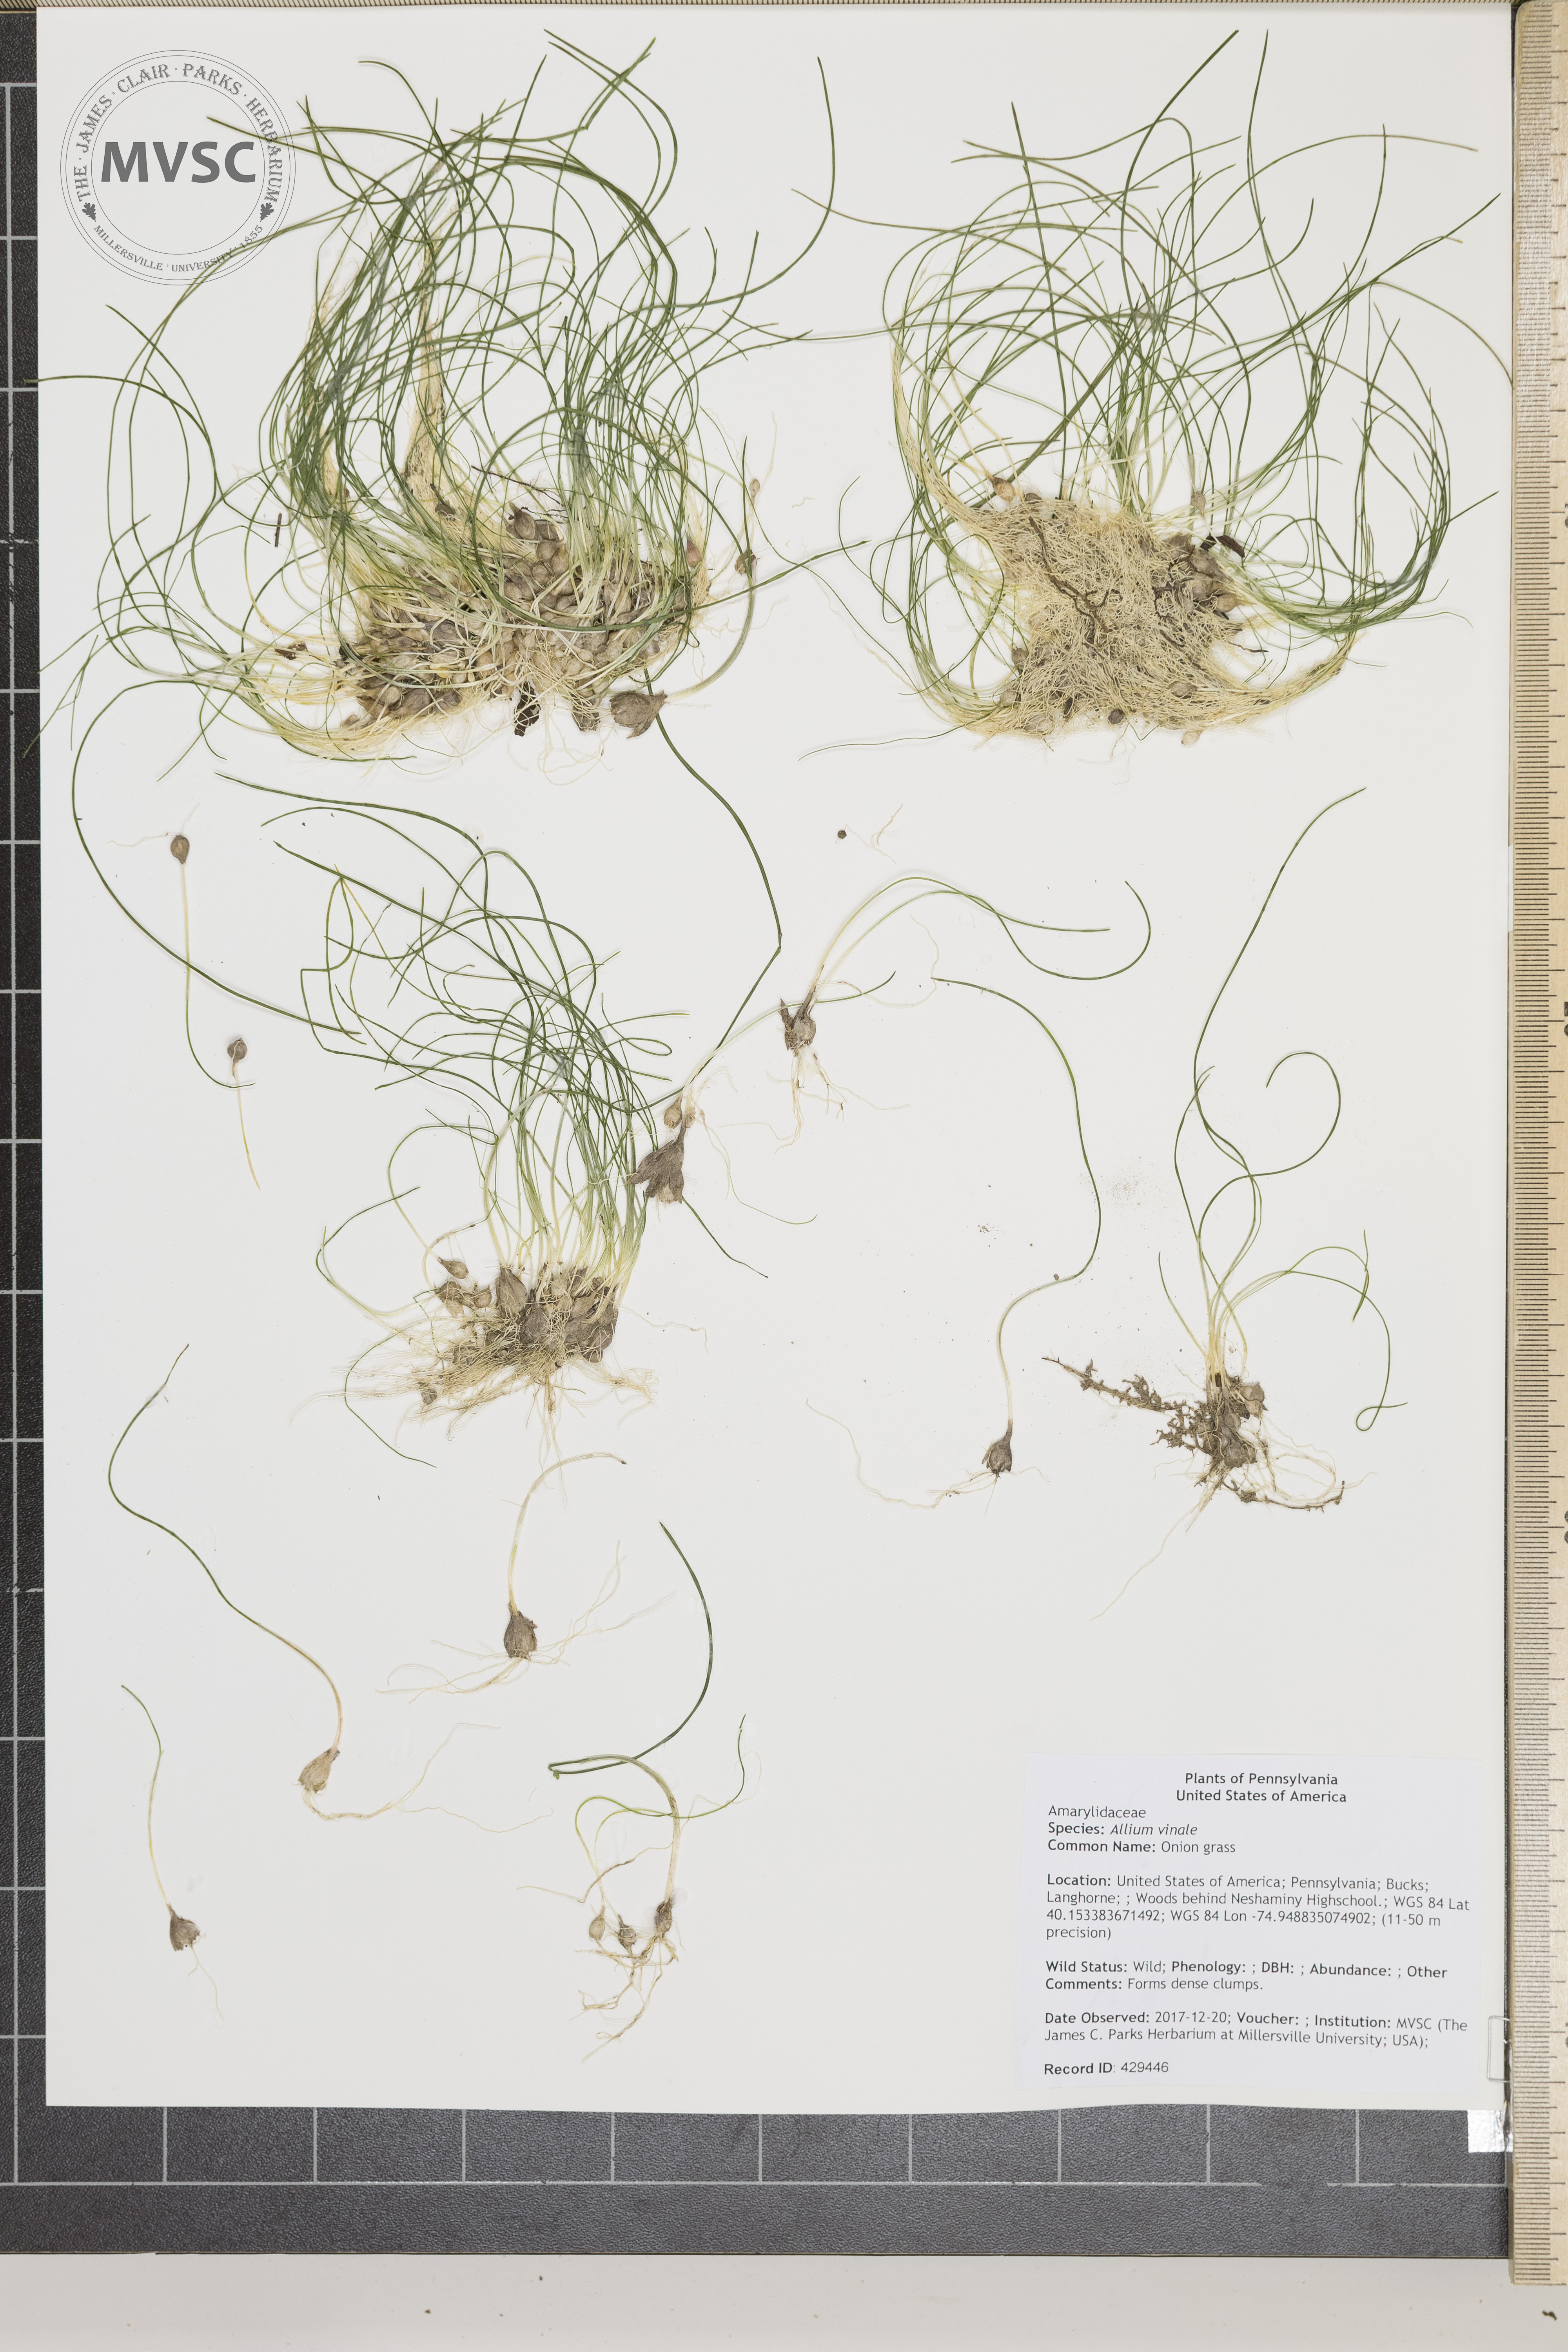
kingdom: Plantae
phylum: Tracheophyta
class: Liliopsida
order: Asparagales
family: Amaryllidaceae
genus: Allium
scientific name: Allium vineale
